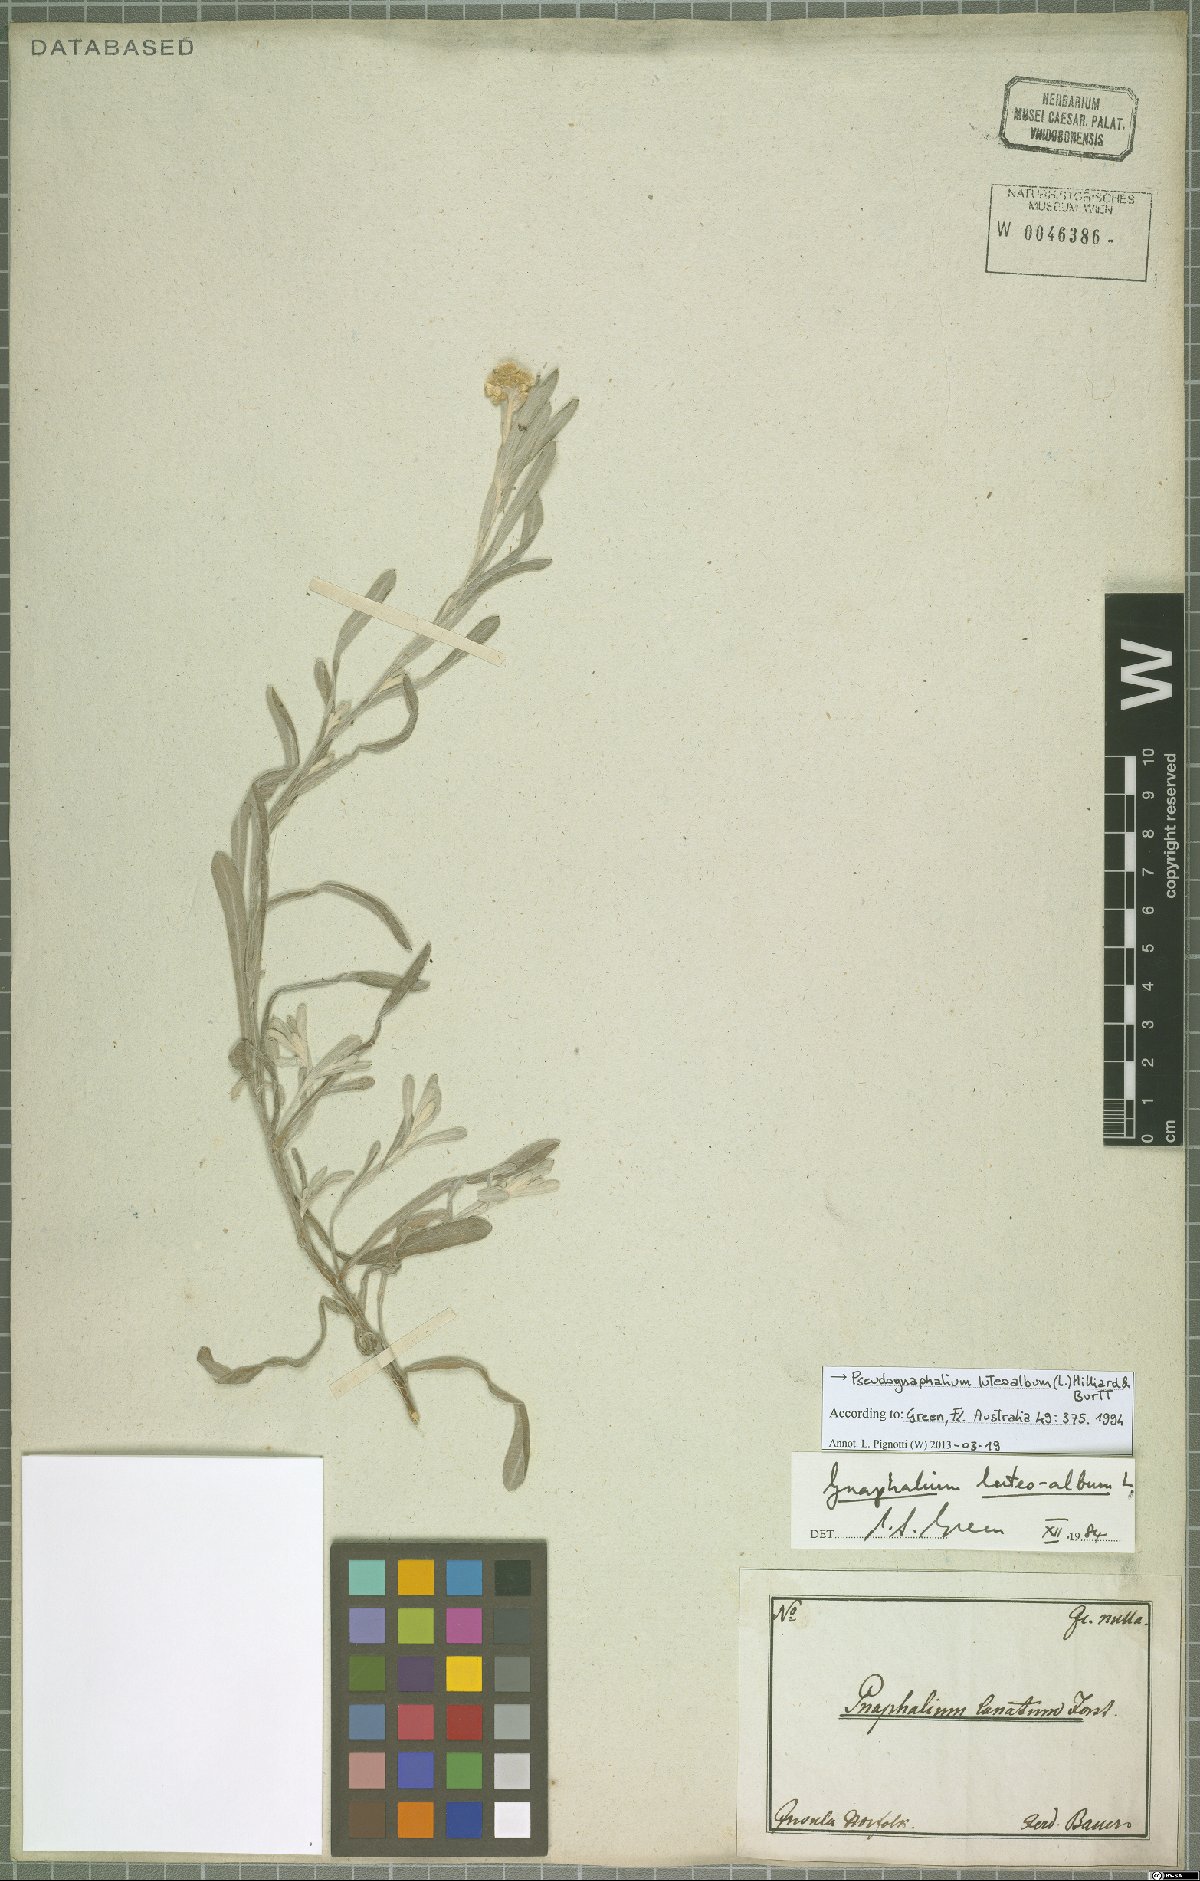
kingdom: Plantae
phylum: Tracheophyta
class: Magnoliopsida
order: Asterales
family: Asteraceae
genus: Helichrysum
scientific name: Helichrysum luteoalbum
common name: Daisy
